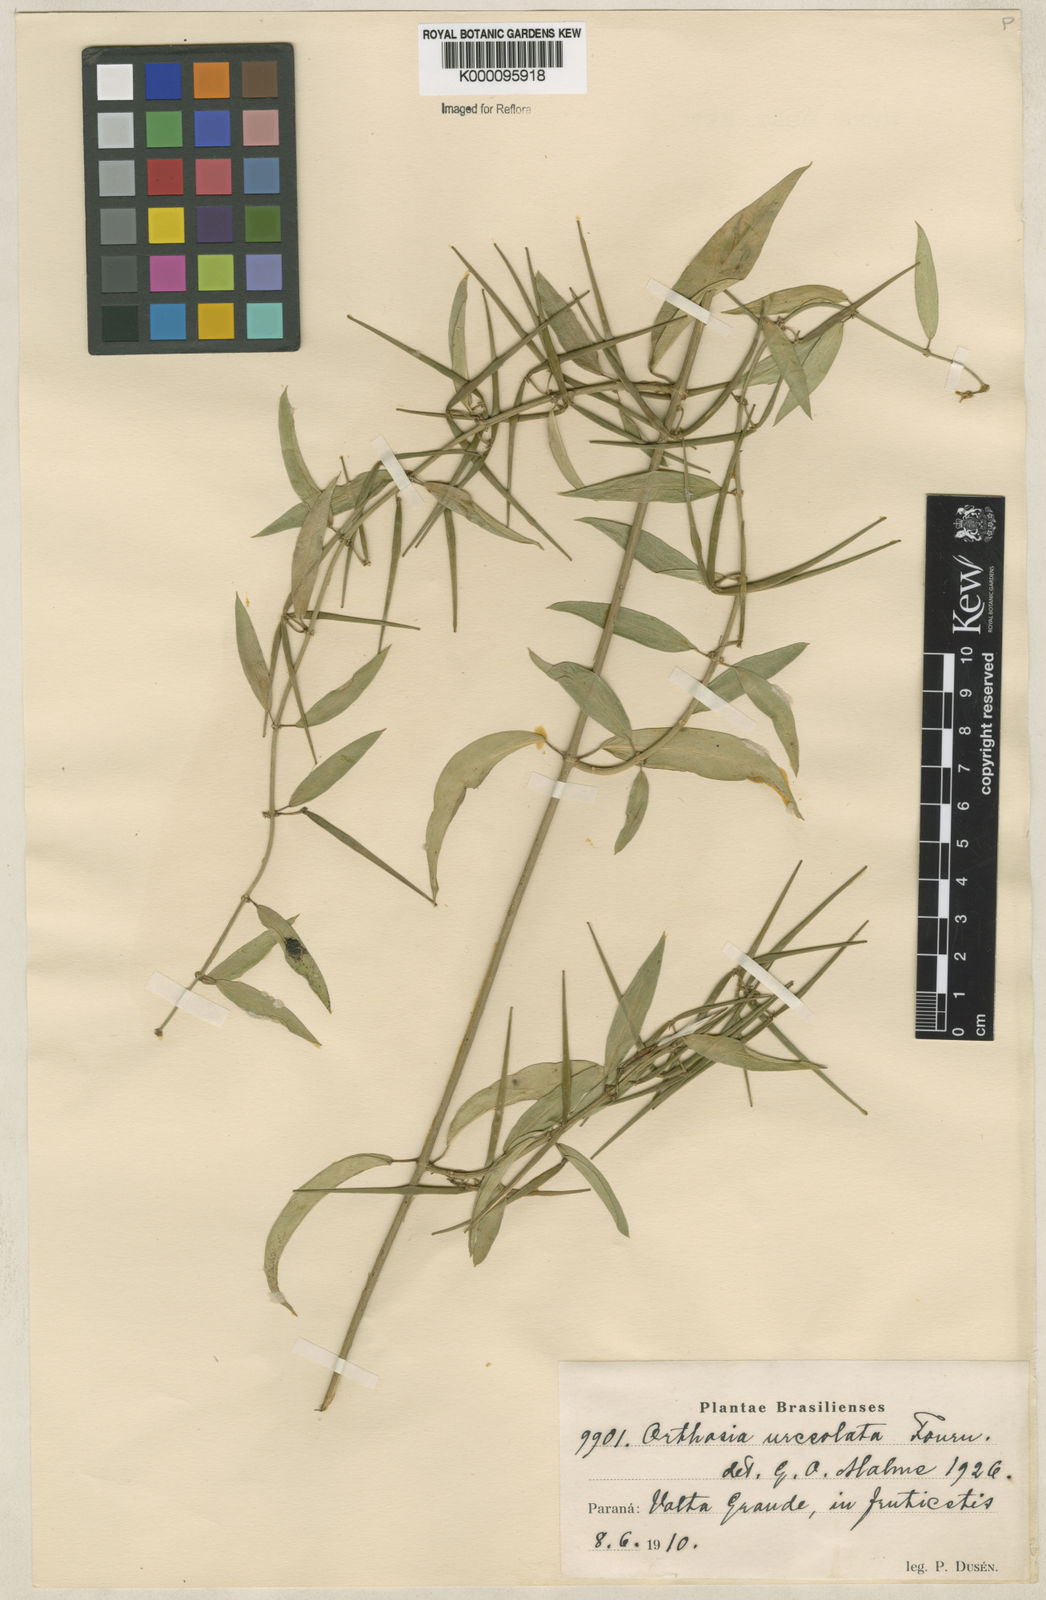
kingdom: Plantae
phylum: Tracheophyta
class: Magnoliopsida
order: Gentianales
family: Apocynaceae
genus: Orthosia
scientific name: Orthosia congesta
